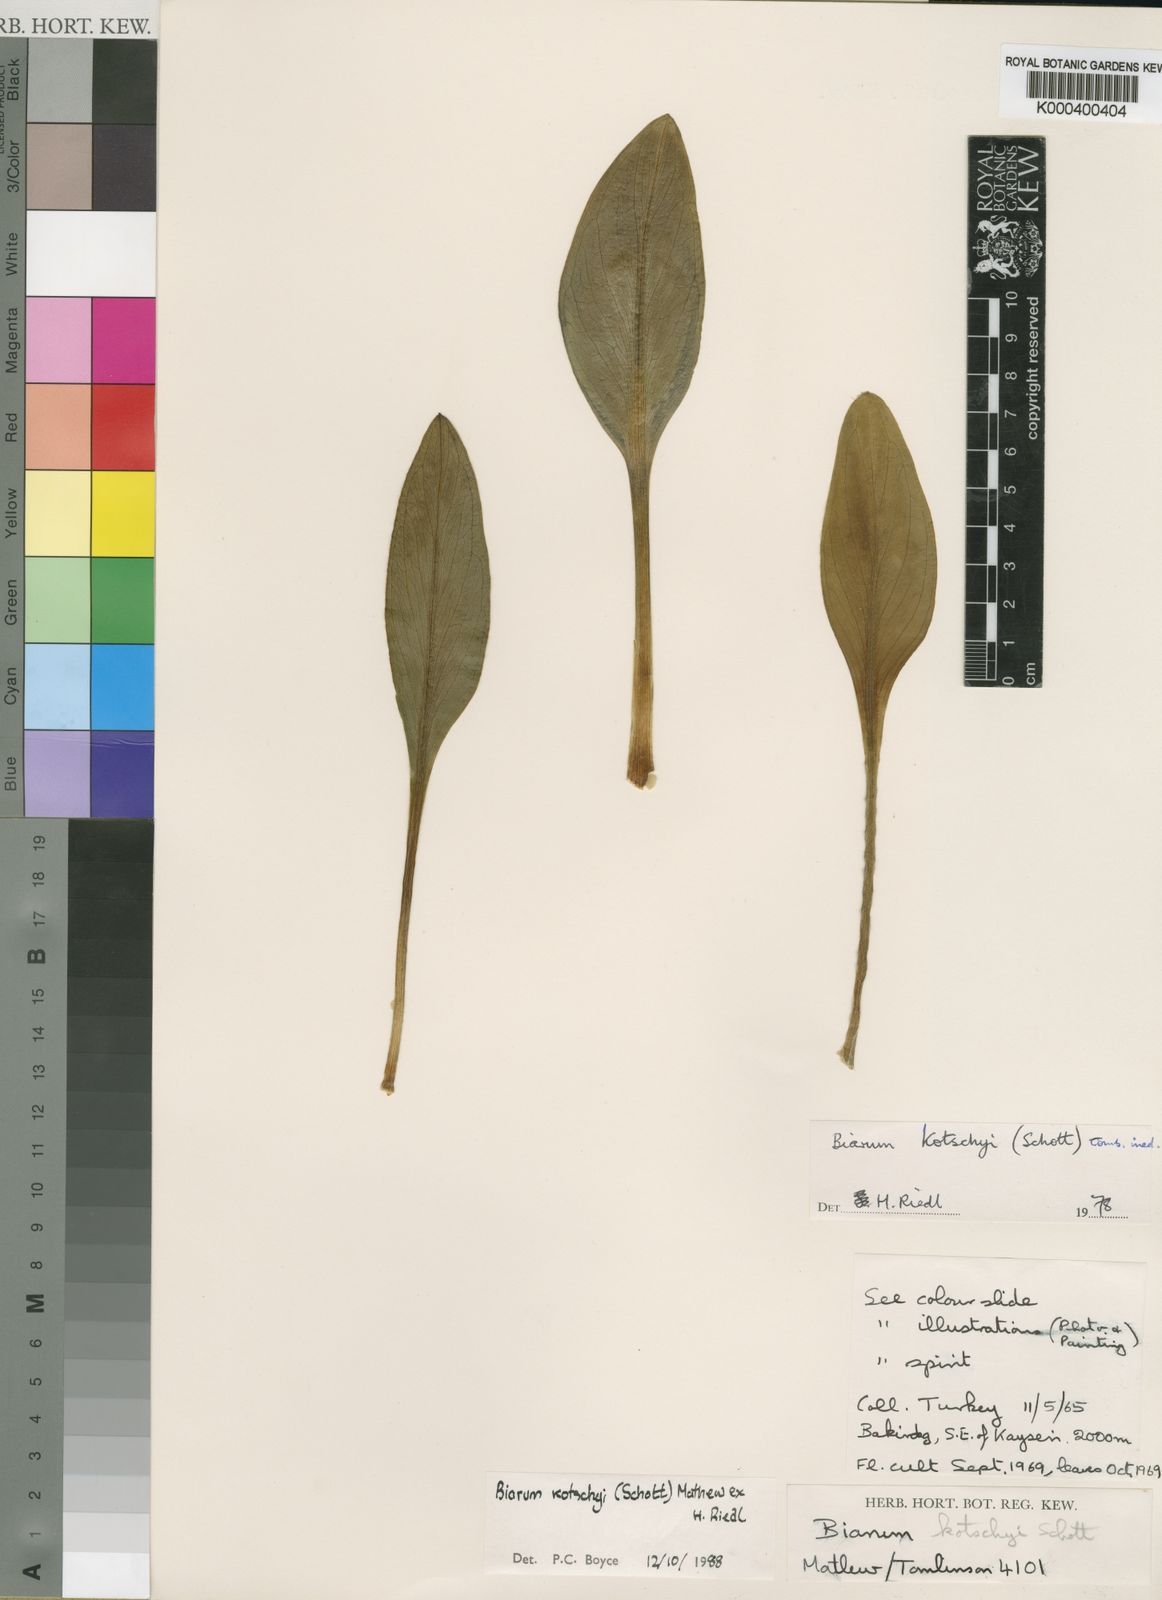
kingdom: Plantae
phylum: Tracheophyta
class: Liliopsida
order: Alismatales
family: Araceae
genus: Biarum
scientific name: Biarum kotschyi
